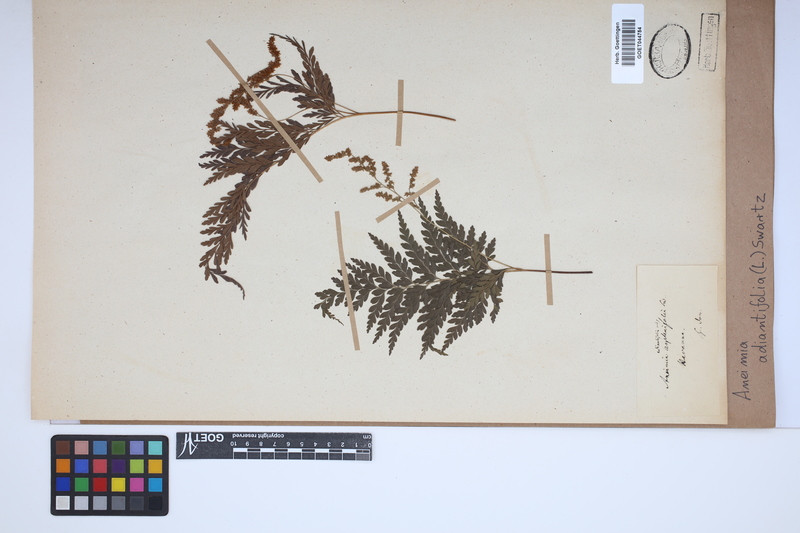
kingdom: Plantae
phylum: Tracheophyta
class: Polypodiopsida
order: Schizaeales
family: Anemiaceae
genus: Anemia
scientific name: Anemia adiantifolia
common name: Pine fern
